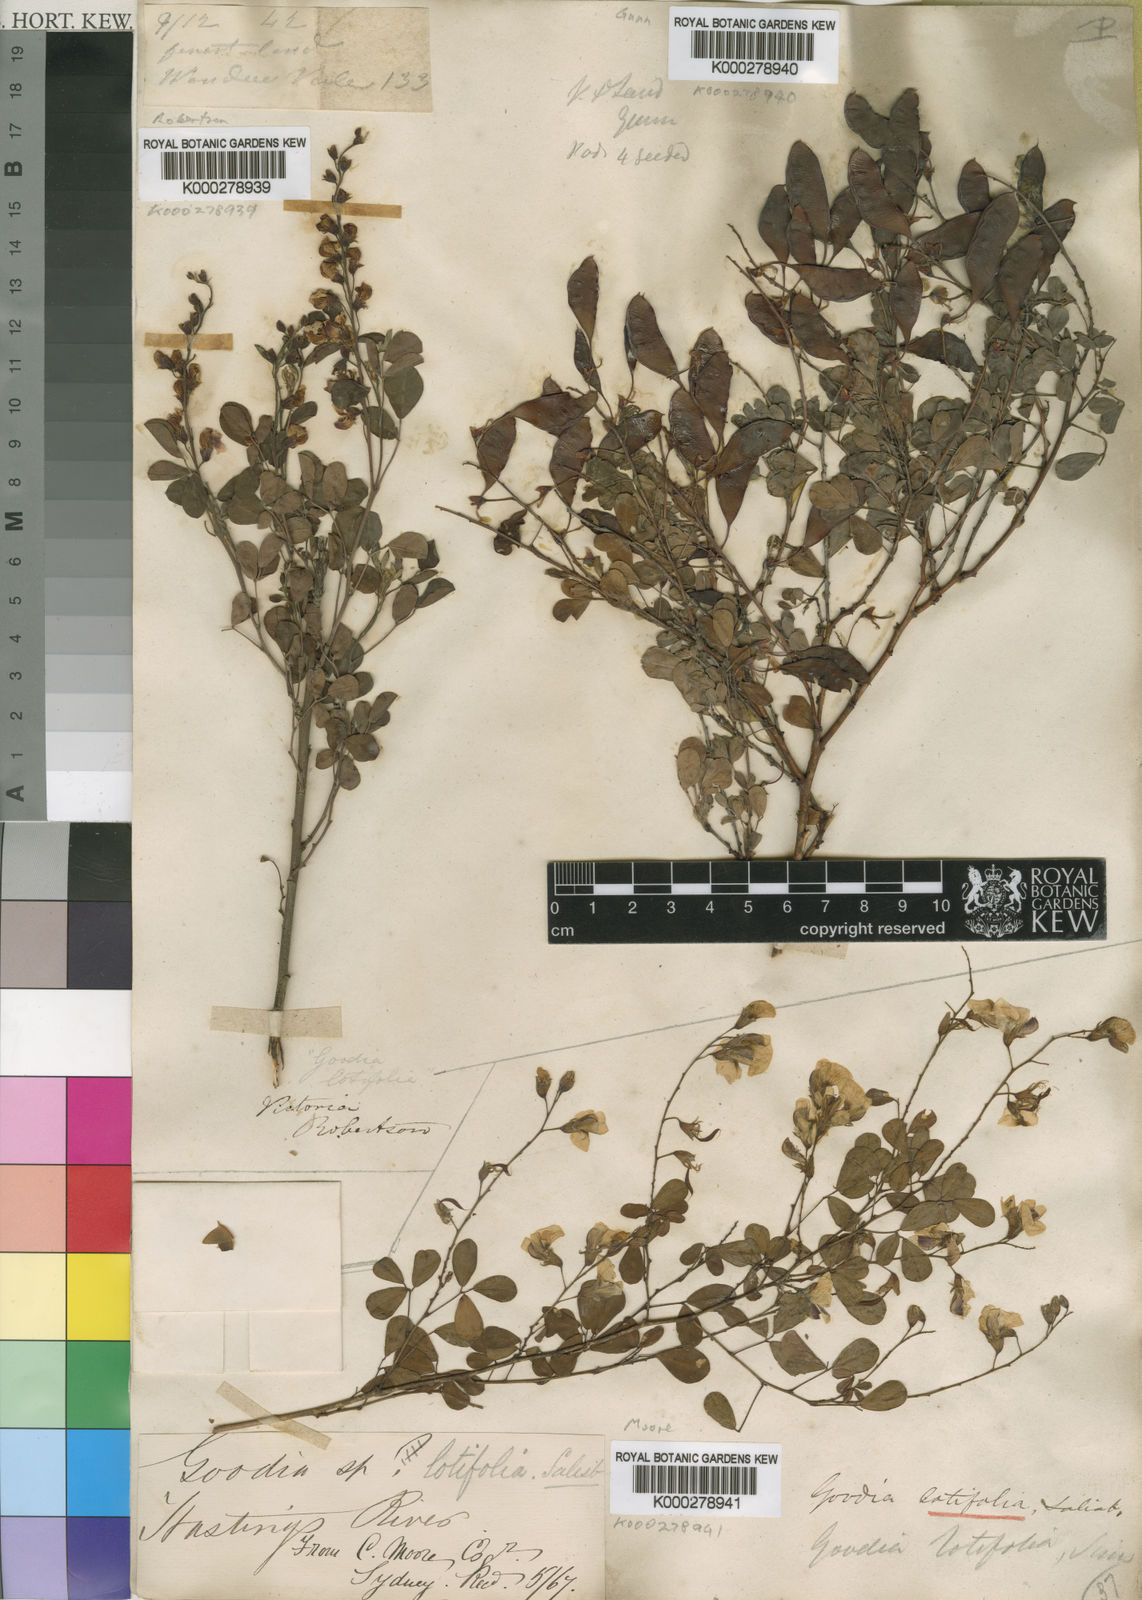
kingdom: Plantae
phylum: Tracheophyta
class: Magnoliopsida
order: Fabales
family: Fabaceae
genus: Goodia
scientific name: Goodia lotifolia
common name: Cloverleaf-poison
